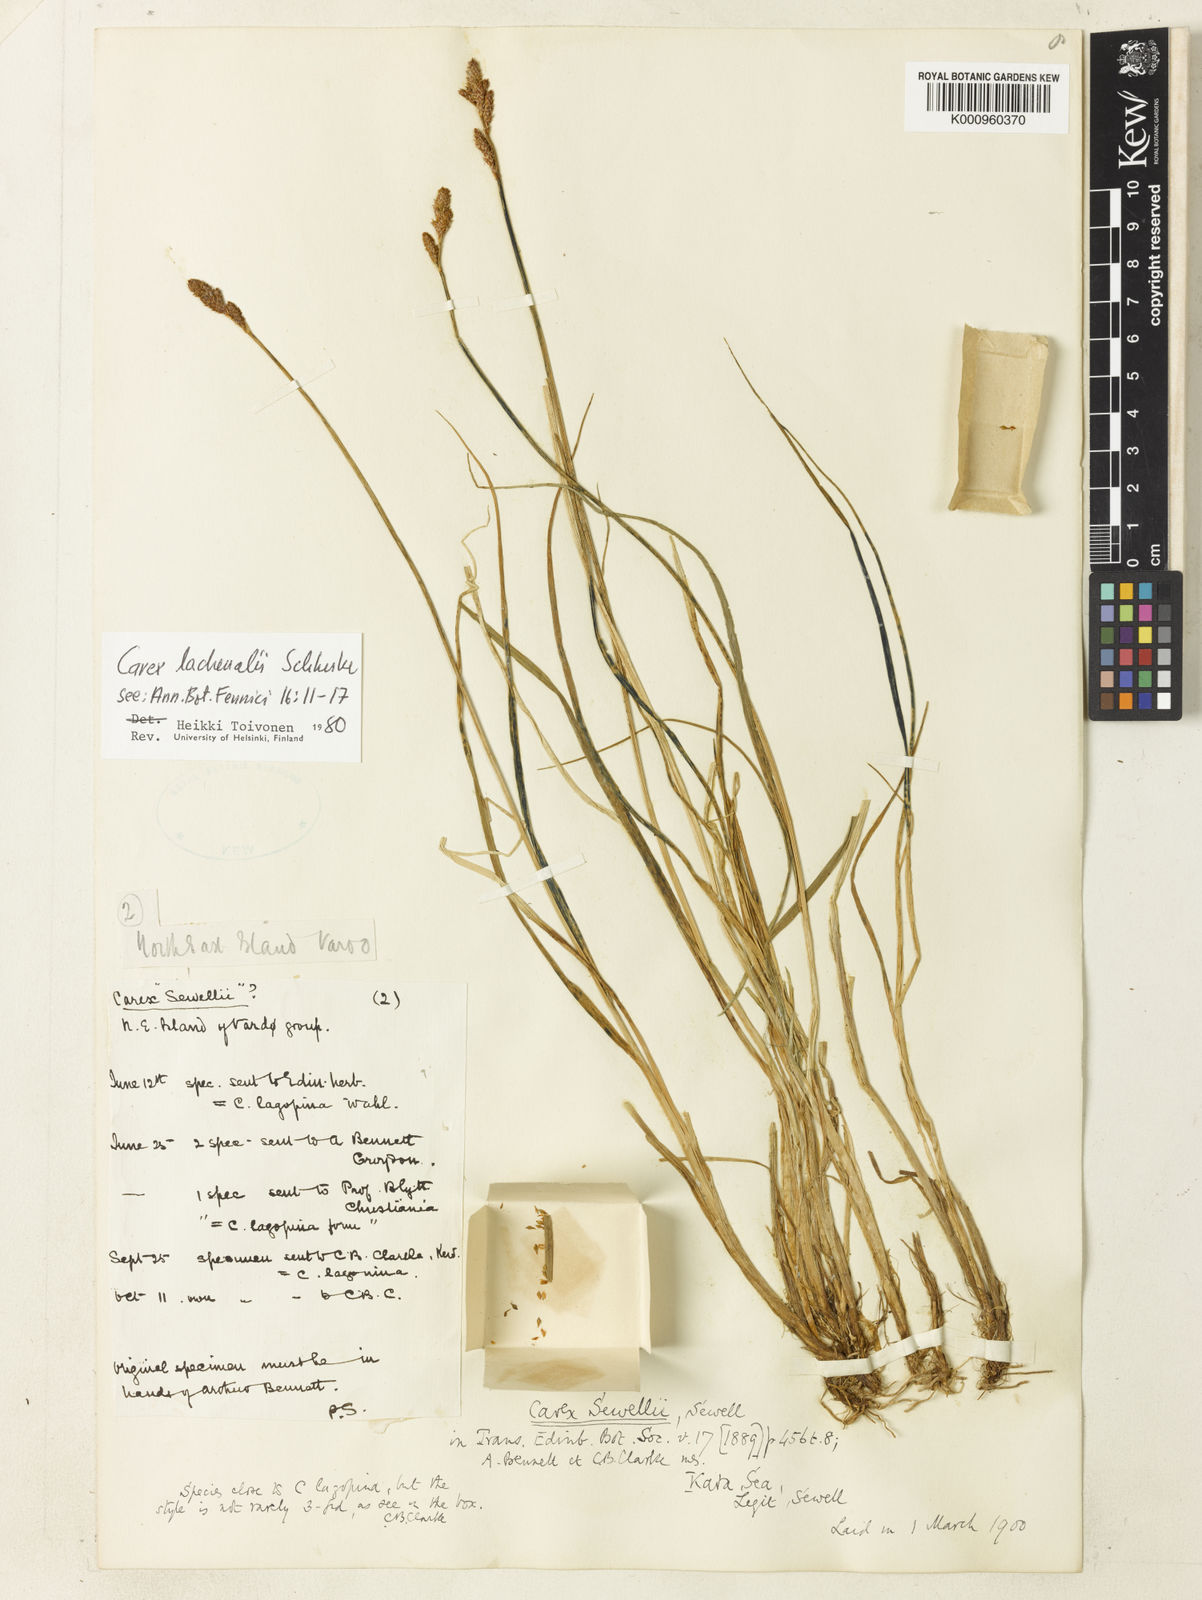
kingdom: Plantae
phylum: Tracheophyta
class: Liliopsida
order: Poales
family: Cyperaceae
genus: Carex
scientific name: Carex lachenalii
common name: Hare's-foot sedge
